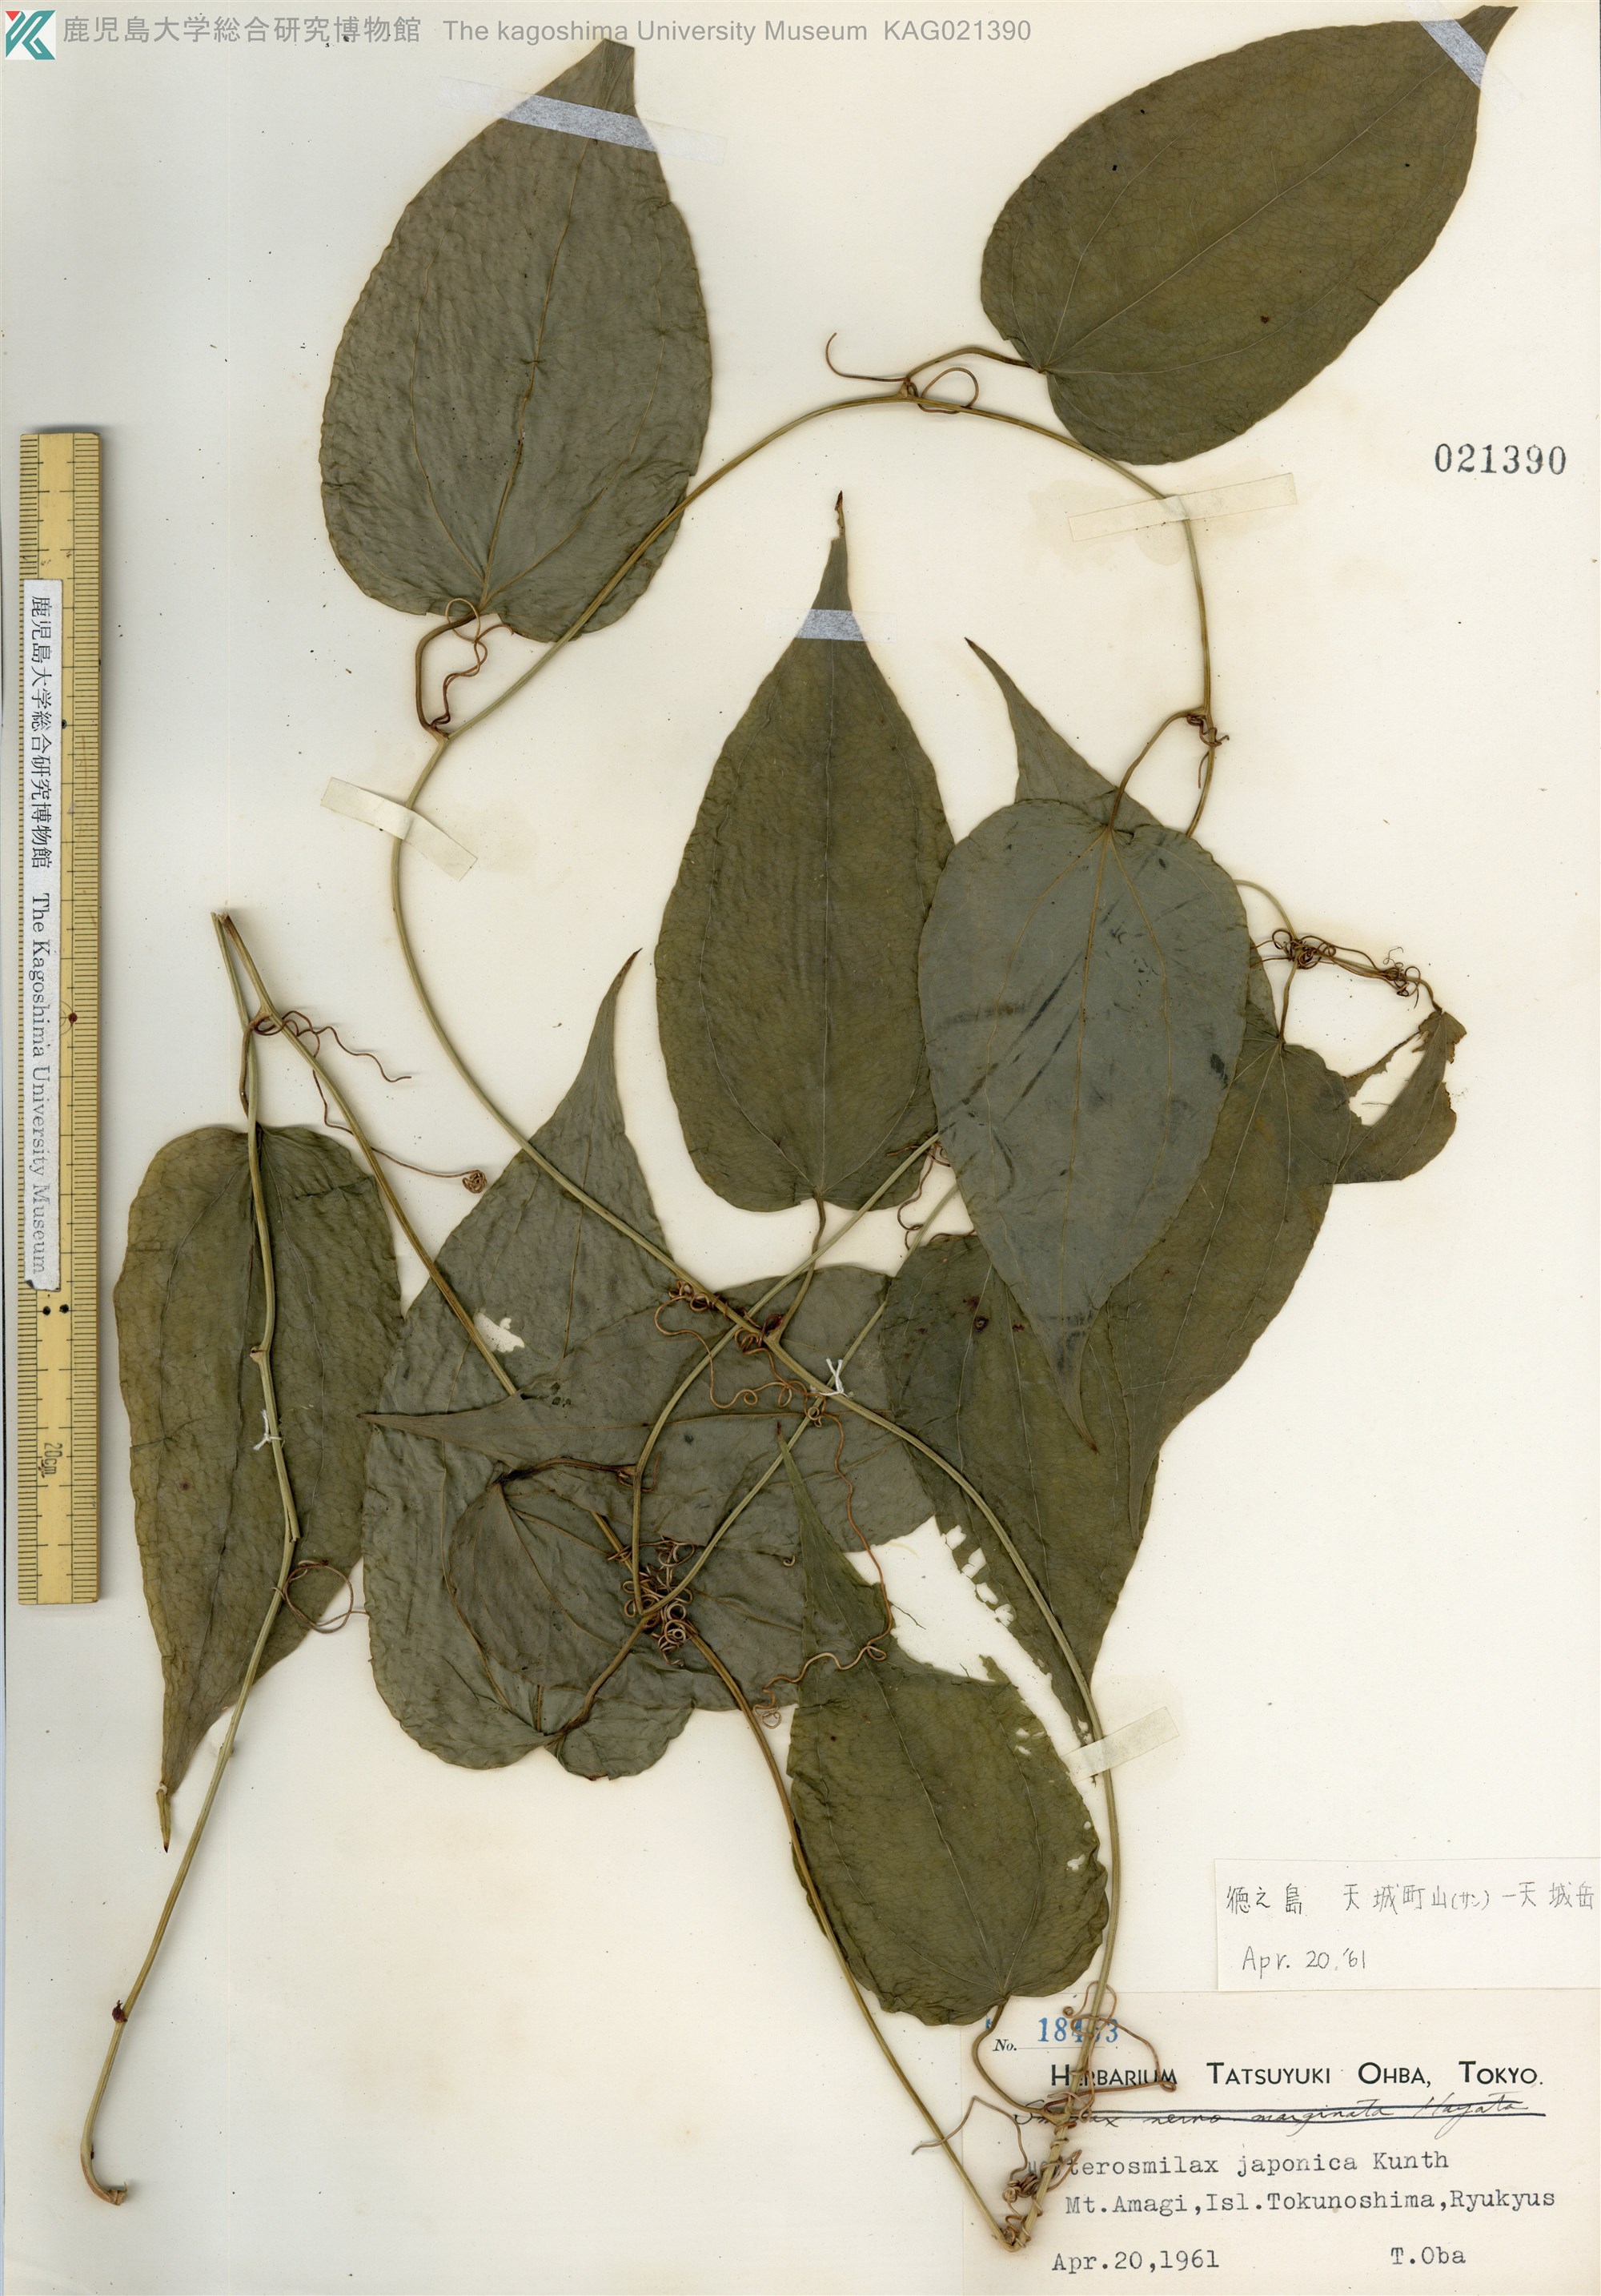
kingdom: Plantae
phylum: Tracheophyta
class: Liliopsida
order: Liliales
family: Smilacaceae
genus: Smilax
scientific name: Smilax insularis
